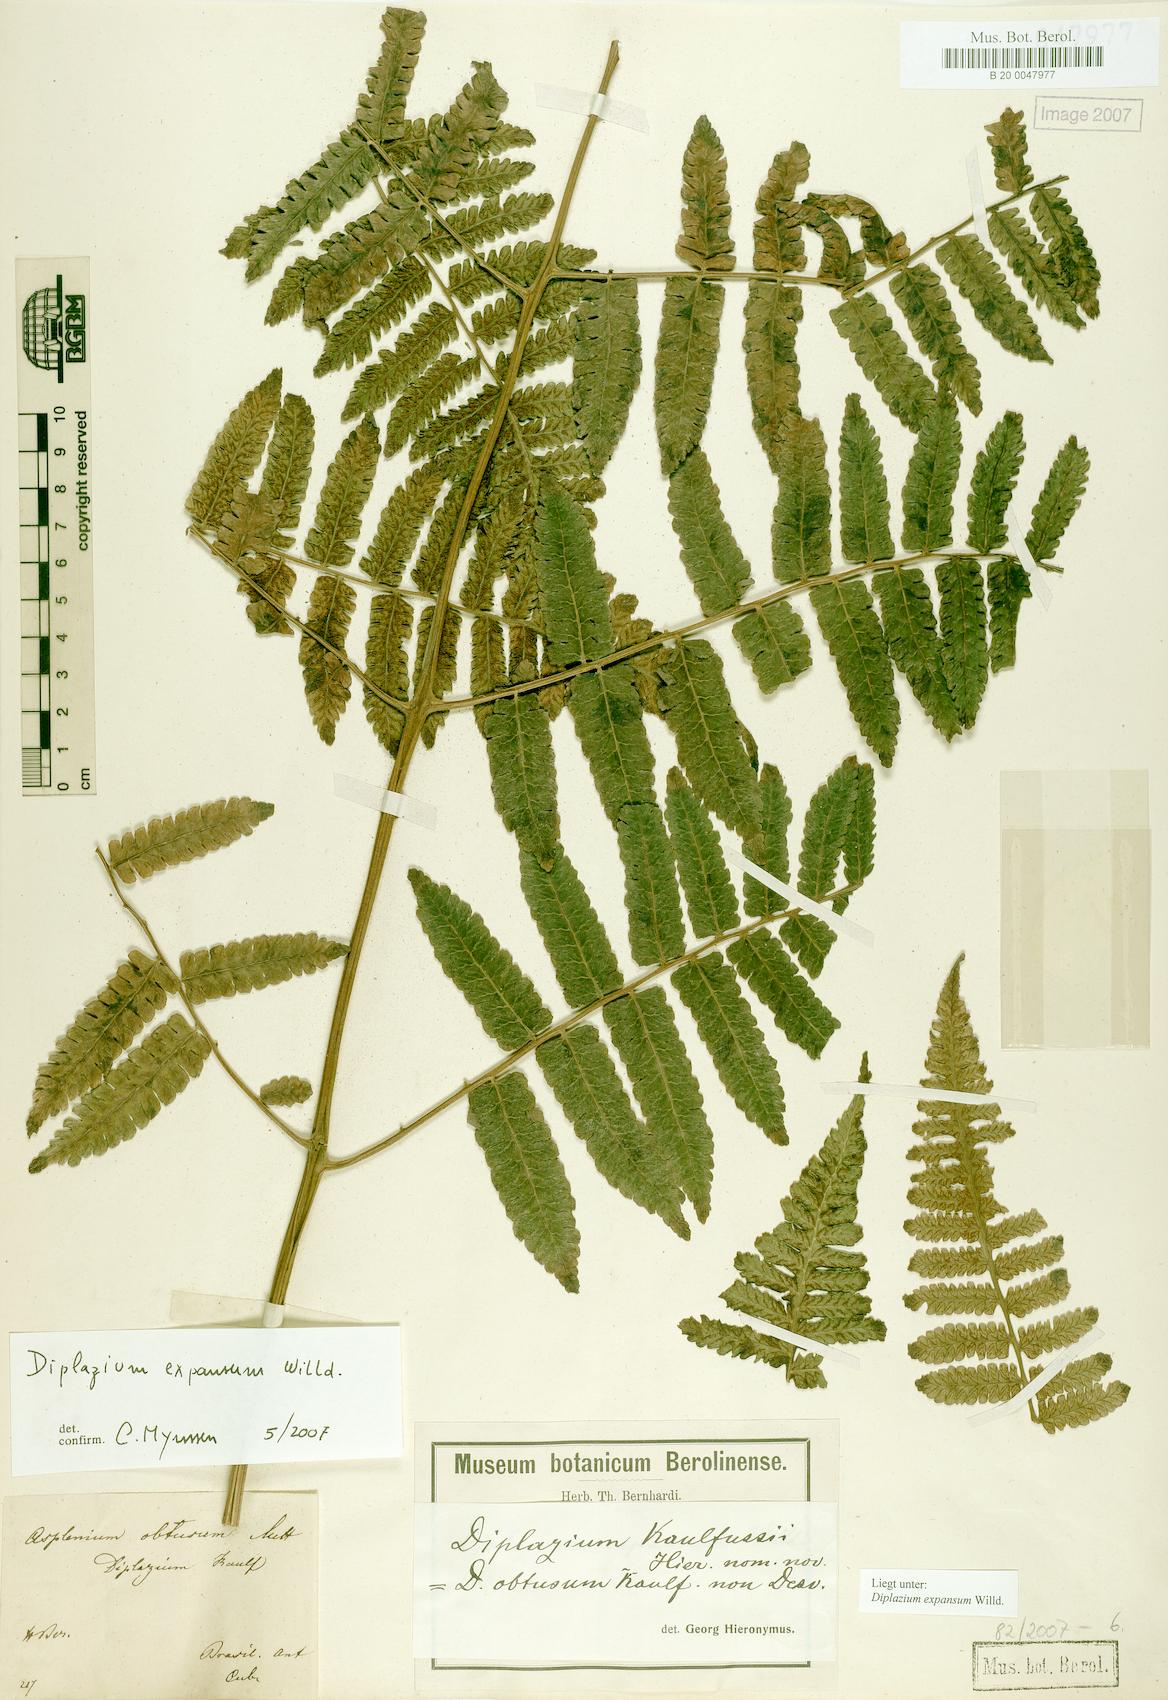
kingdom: Plantae
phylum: Tracheophyta
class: Polypodiopsida
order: Polypodiales
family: Athyriaceae
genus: Diplazium
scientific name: Diplazium expansum
